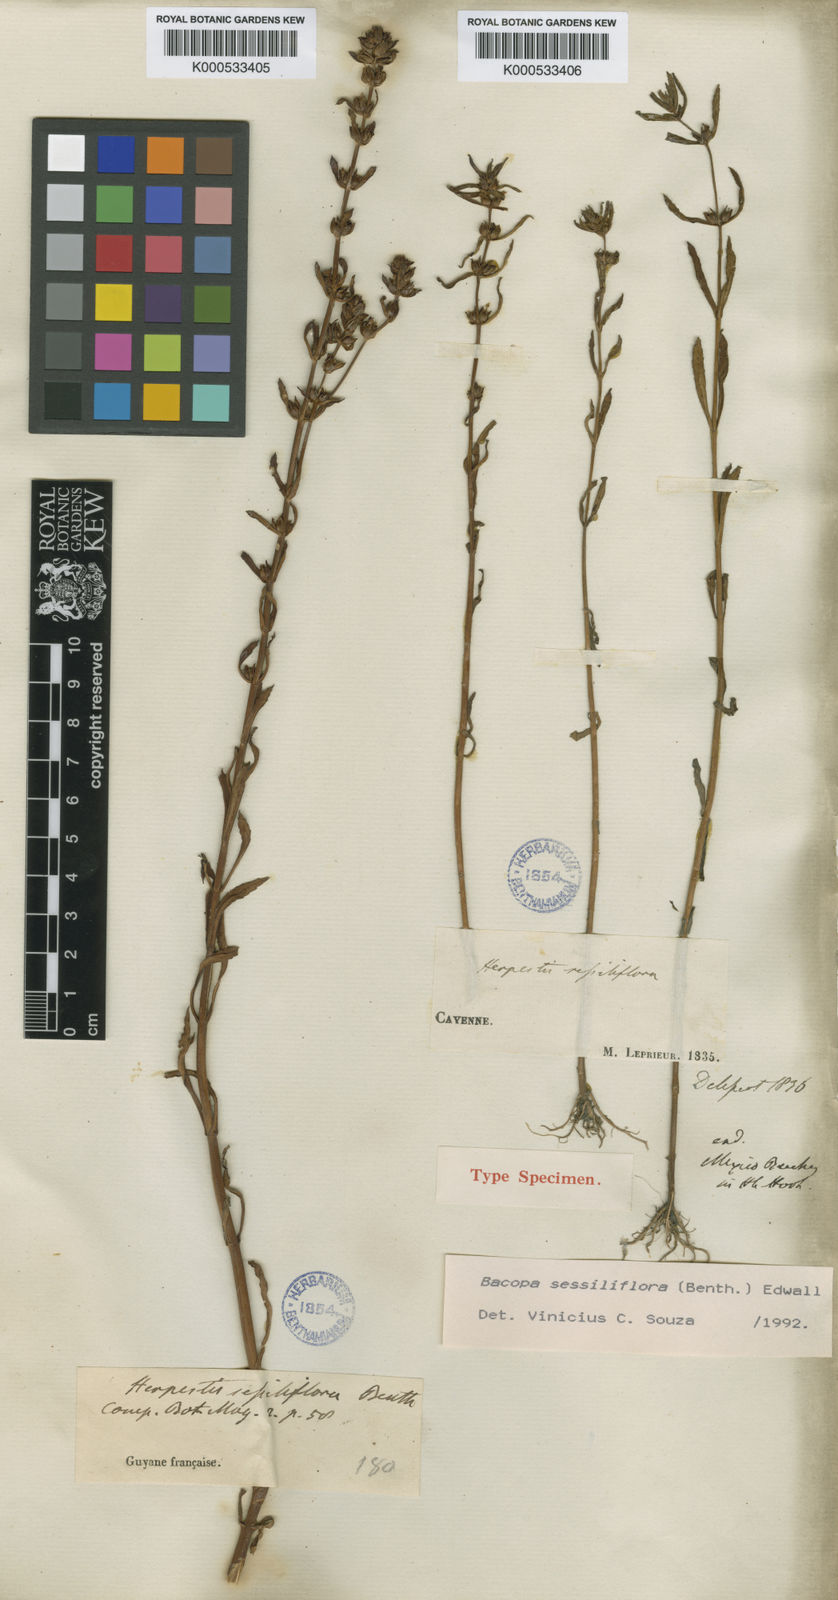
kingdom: Plantae
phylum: Tracheophyta
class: Magnoliopsida
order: Lamiales
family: Plantaginaceae
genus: Bacopa
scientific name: Bacopa sessiliflora
